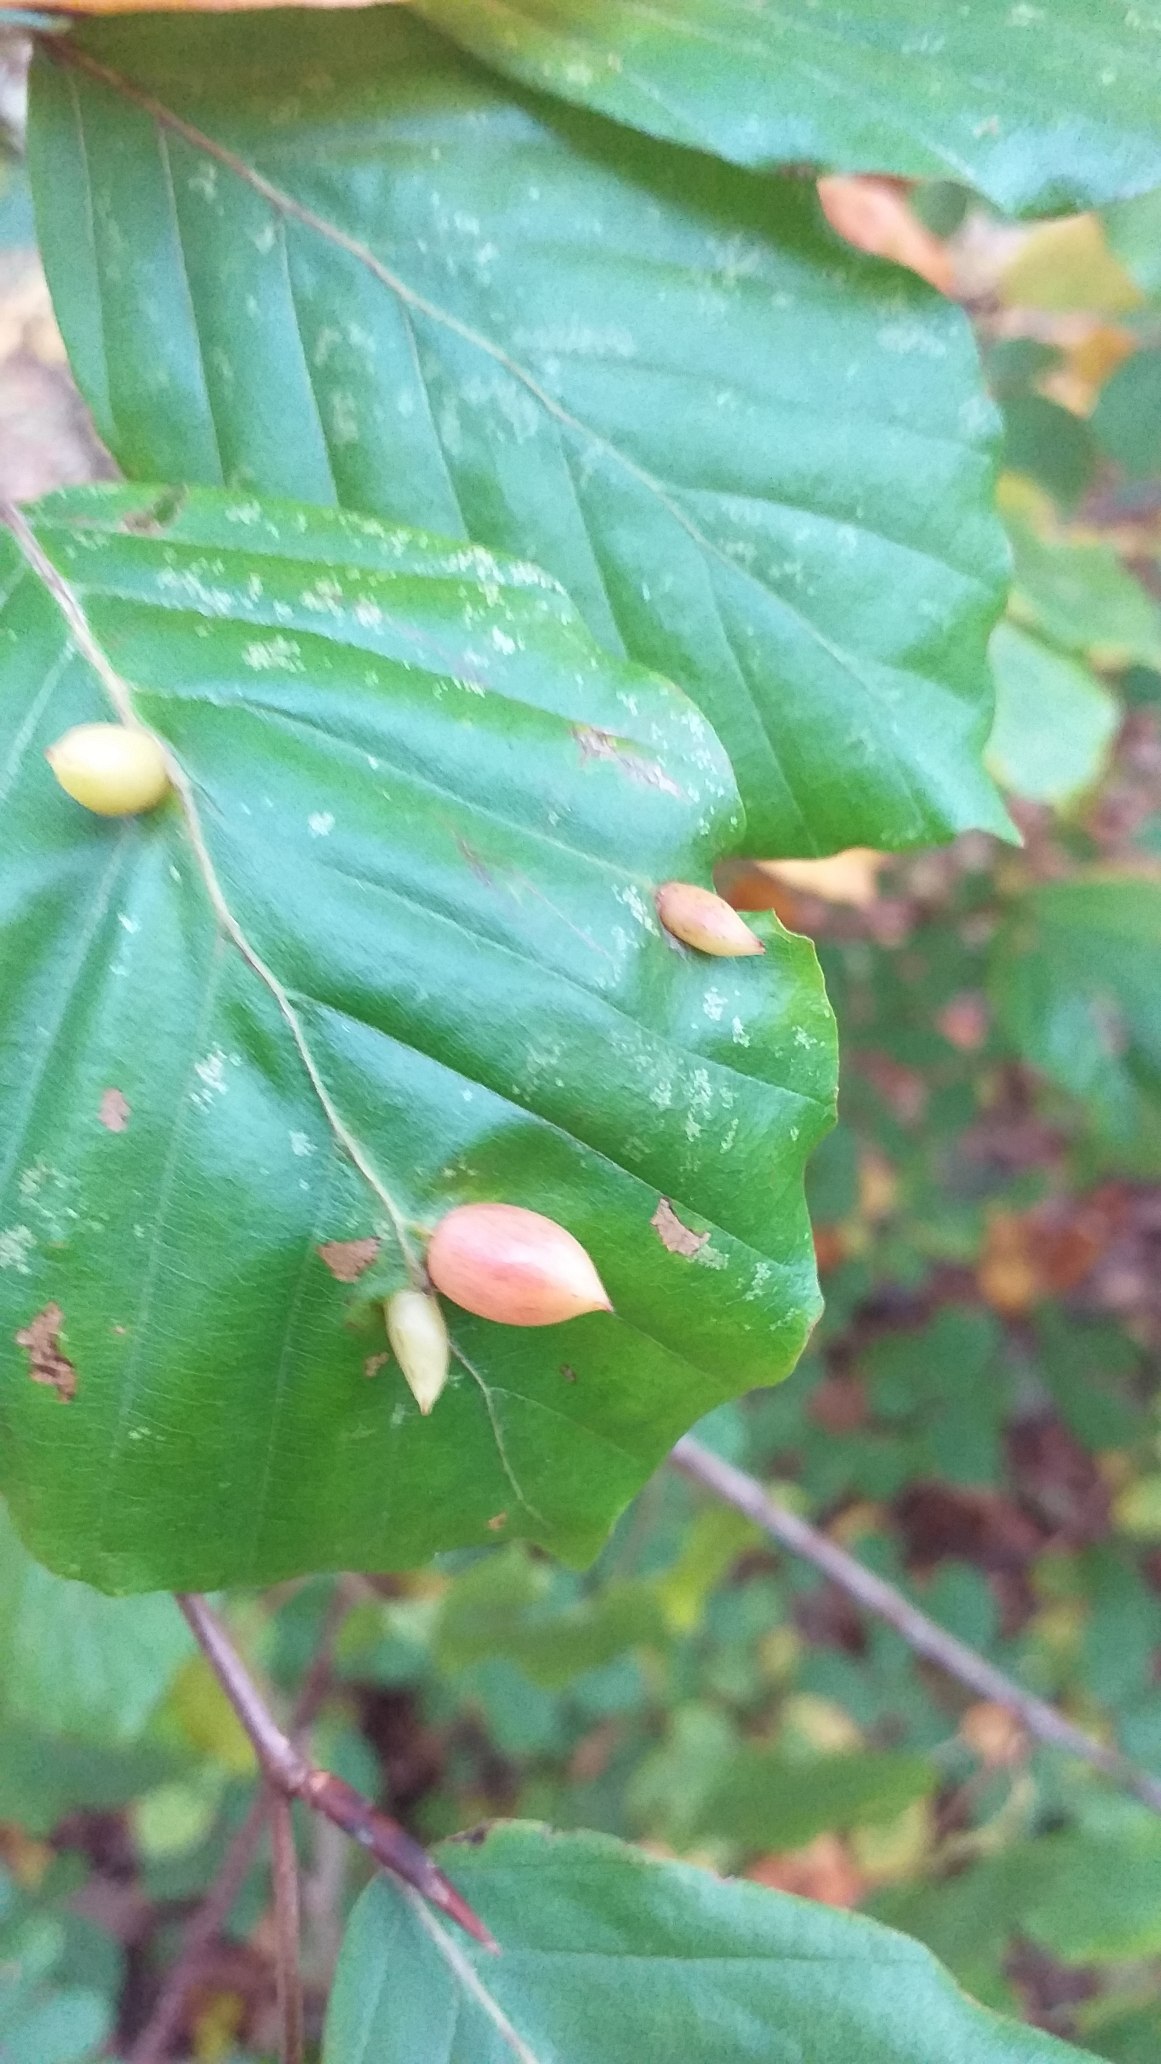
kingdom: Animalia
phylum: Arthropoda
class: Insecta
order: Diptera
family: Cecidomyiidae
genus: Mikiola
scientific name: Mikiola fagi
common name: Bøgegalmyg
